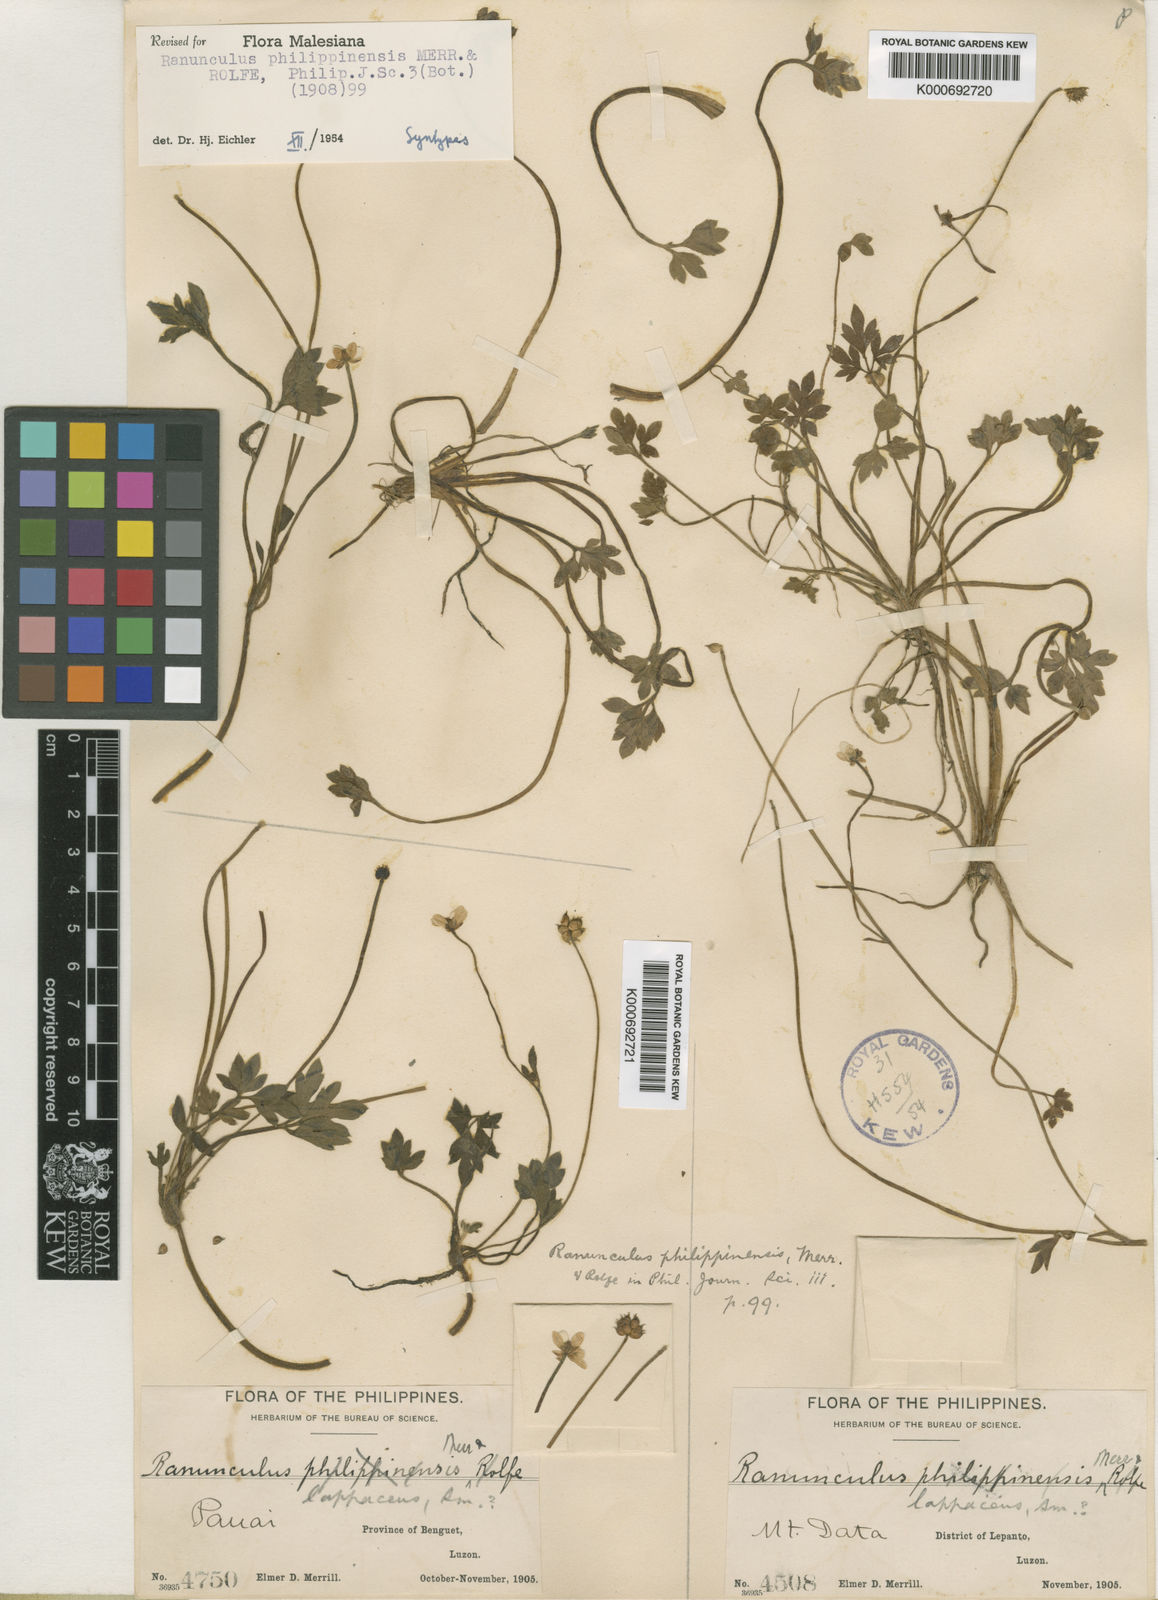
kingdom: Plantae
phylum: Tracheophyta
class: Magnoliopsida
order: Ranunculales
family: Ranunculaceae
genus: Ranunculus
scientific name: Ranunculus philippinensis
